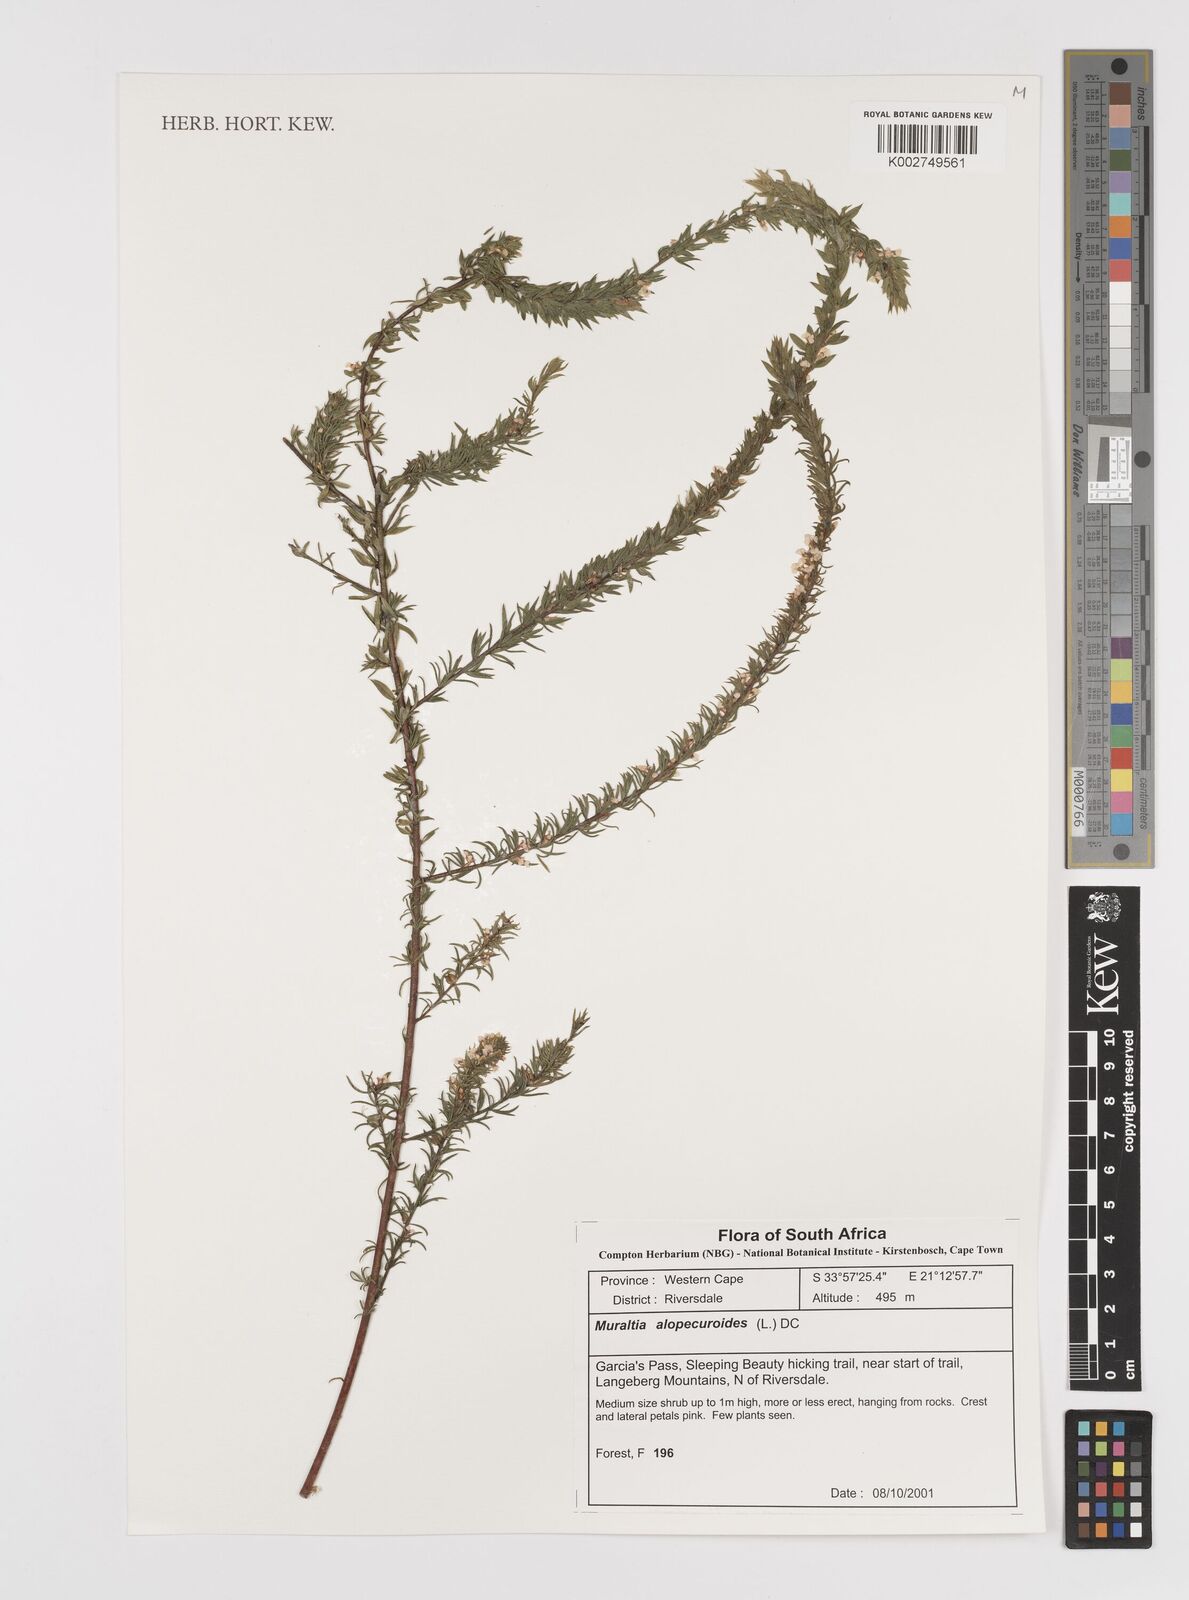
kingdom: Plantae
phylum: Tracheophyta
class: Magnoliopsida
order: Fabales
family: Polygalaceae
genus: Muraltia
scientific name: Muraltia alopecuroides
